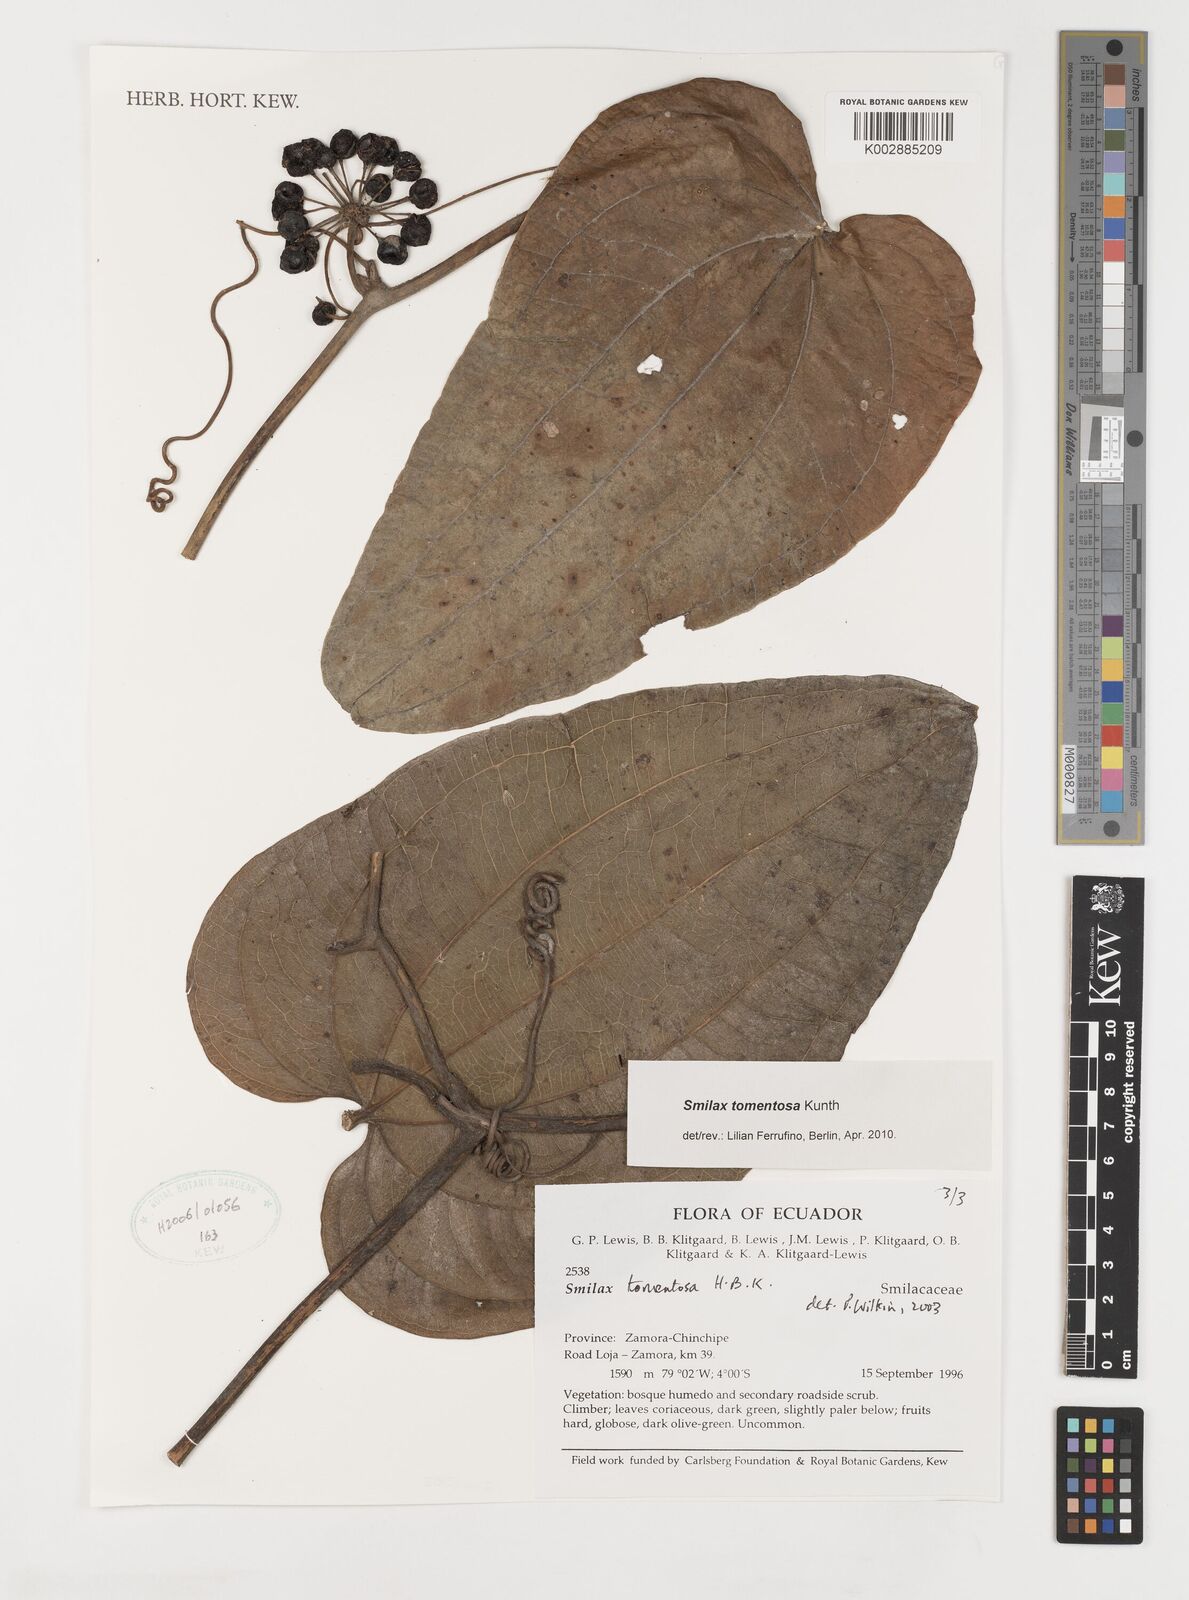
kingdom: Plantae
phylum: Tracheophyta
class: Liliopsida
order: Liliales
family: Smilacaceae
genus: Smilax
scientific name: Smilax tomentosa
